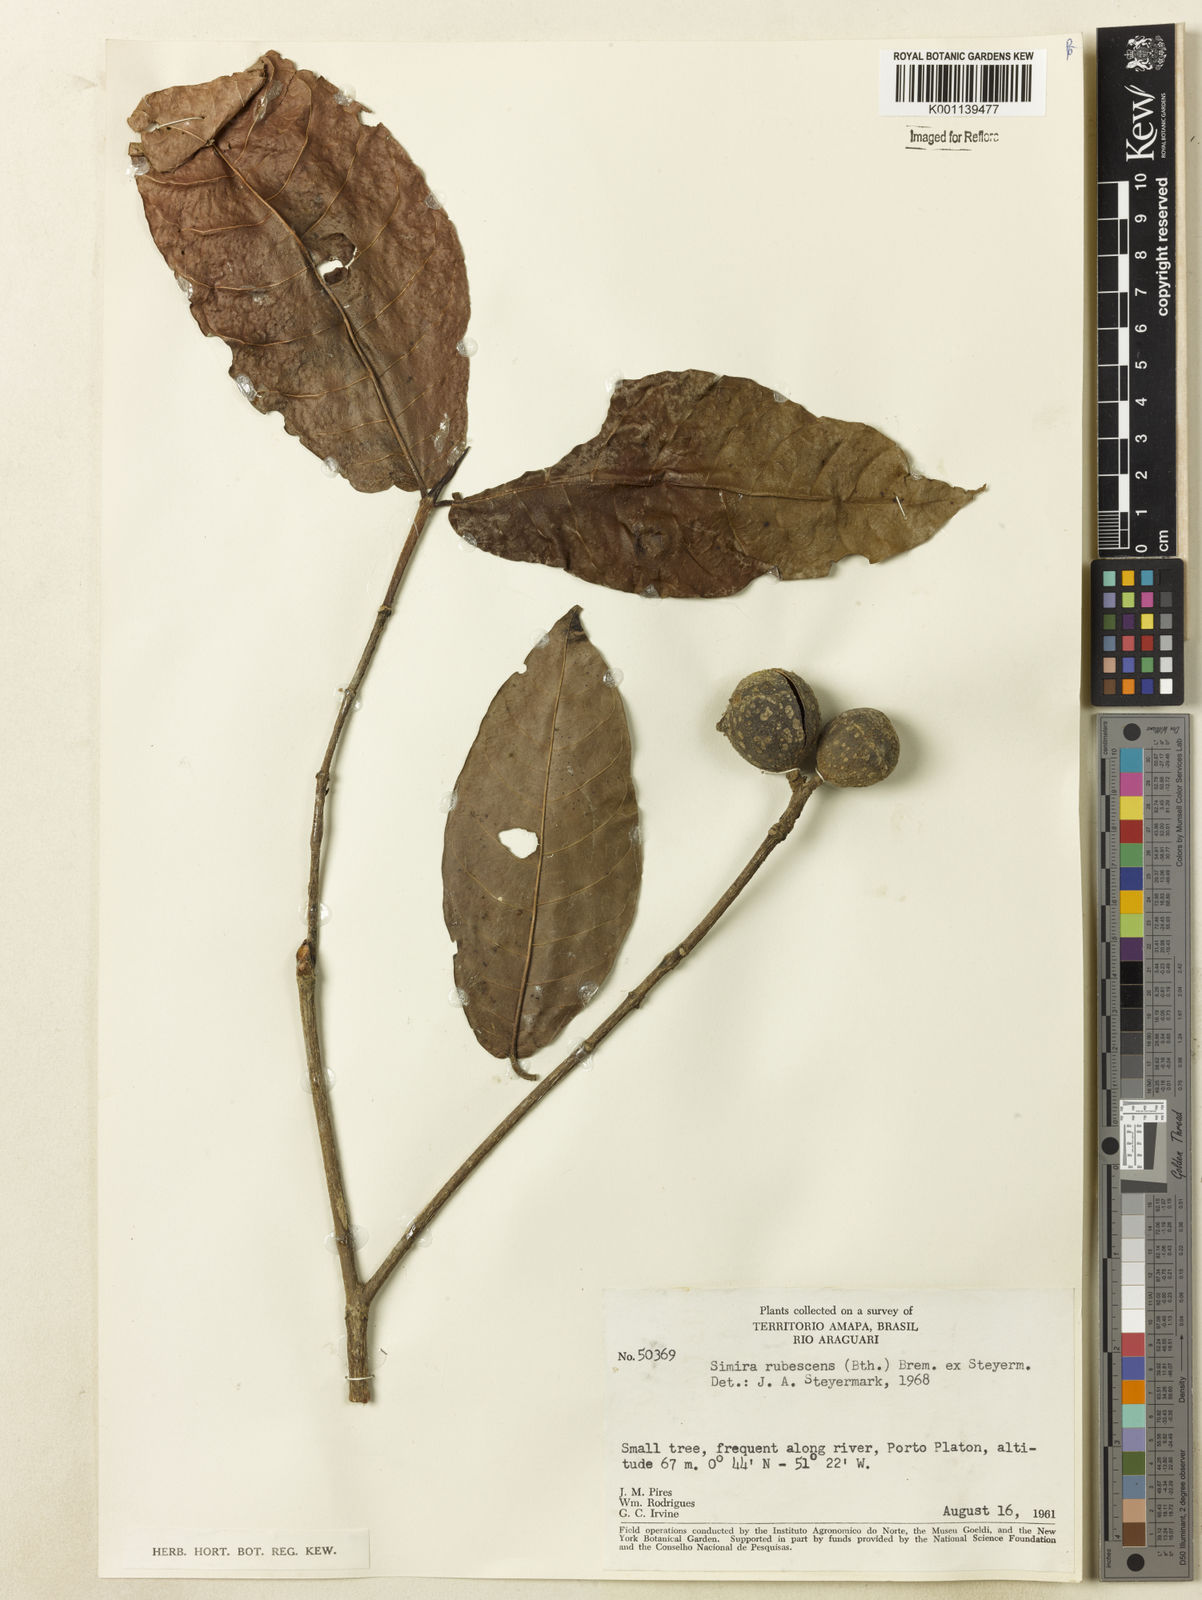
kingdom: Plantae
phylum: Tracheophyta
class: Magnoliopsida
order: Gentianales
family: Rubiaceae
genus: Simira
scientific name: Simira rubescens
